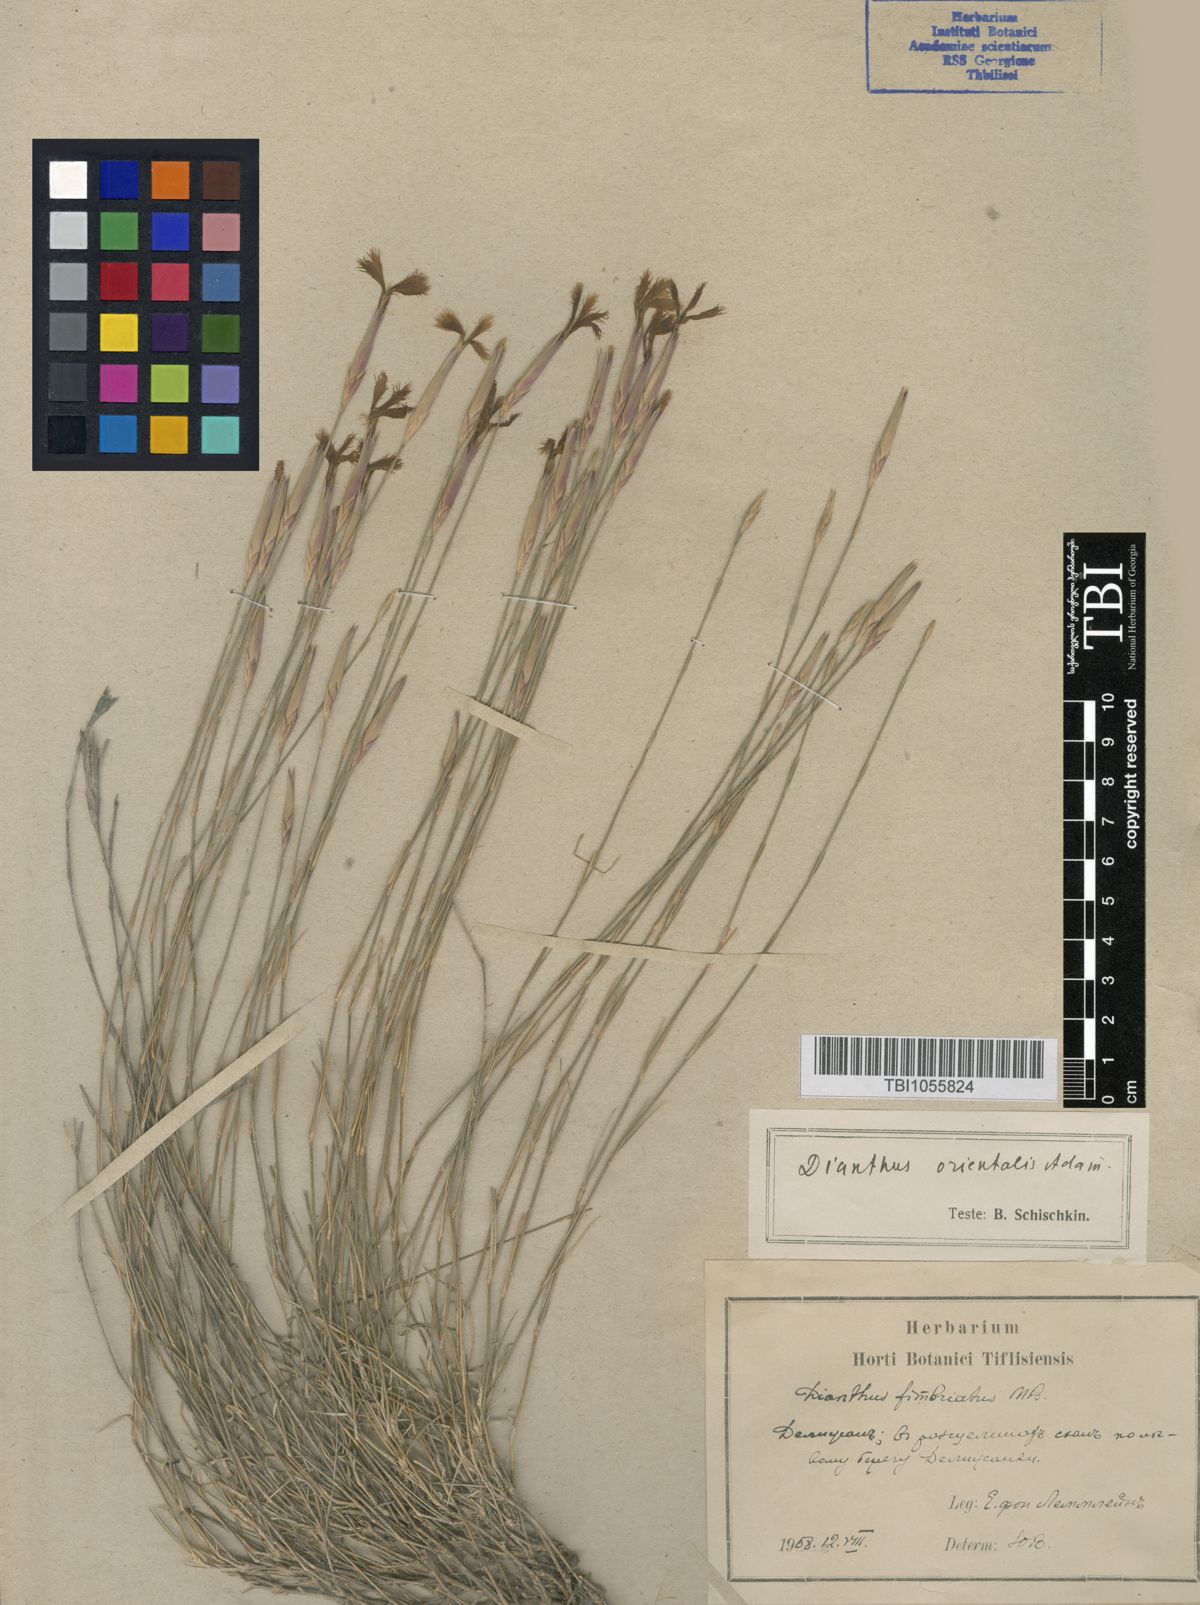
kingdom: Plantae
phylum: Tracheophyta
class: Magnoliopsida
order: Caryophyllales
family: Caryophyllaceae
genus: Dianthus
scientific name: Dianthus orientalis
